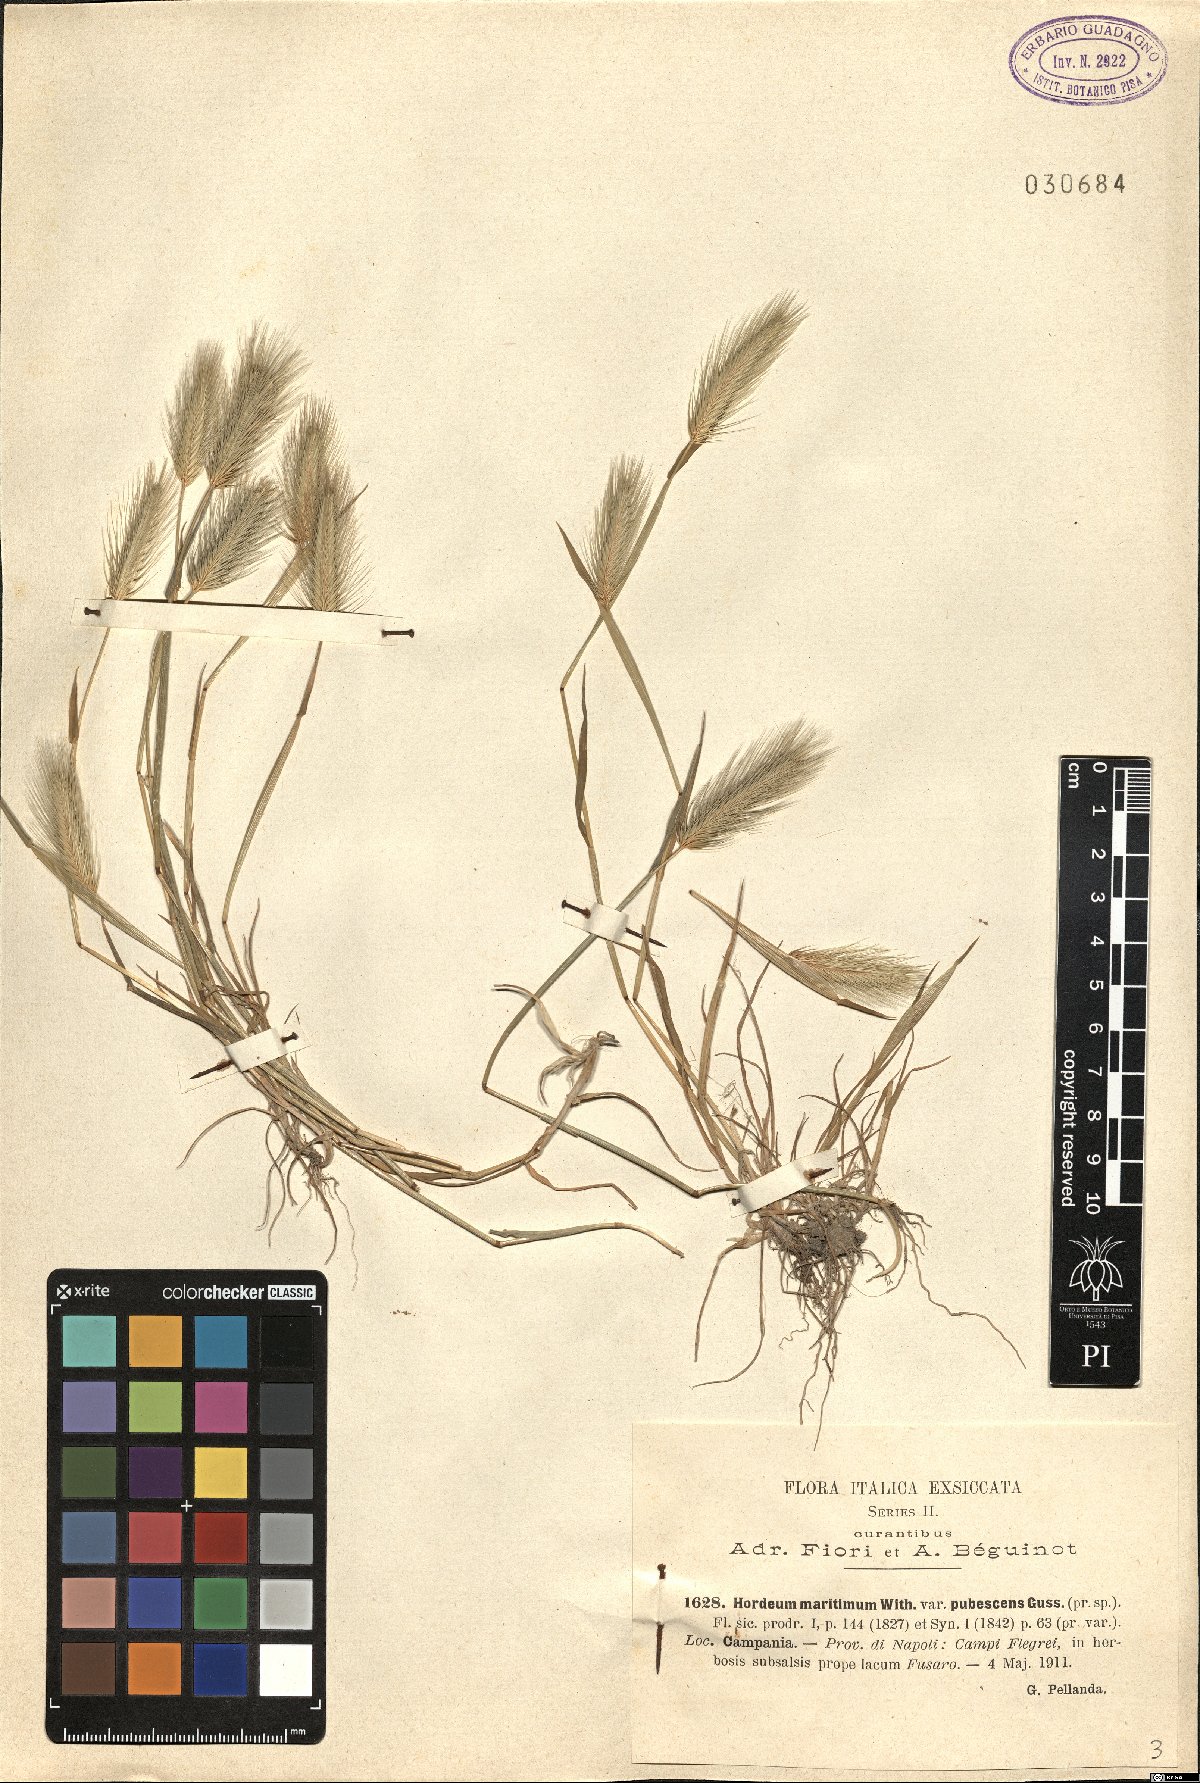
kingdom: Plantae
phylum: Tracheophyta
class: Liliopsida
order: Poales
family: Poaceae
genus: Hordeum
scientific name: Hordeum marinum
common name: Sea barley
